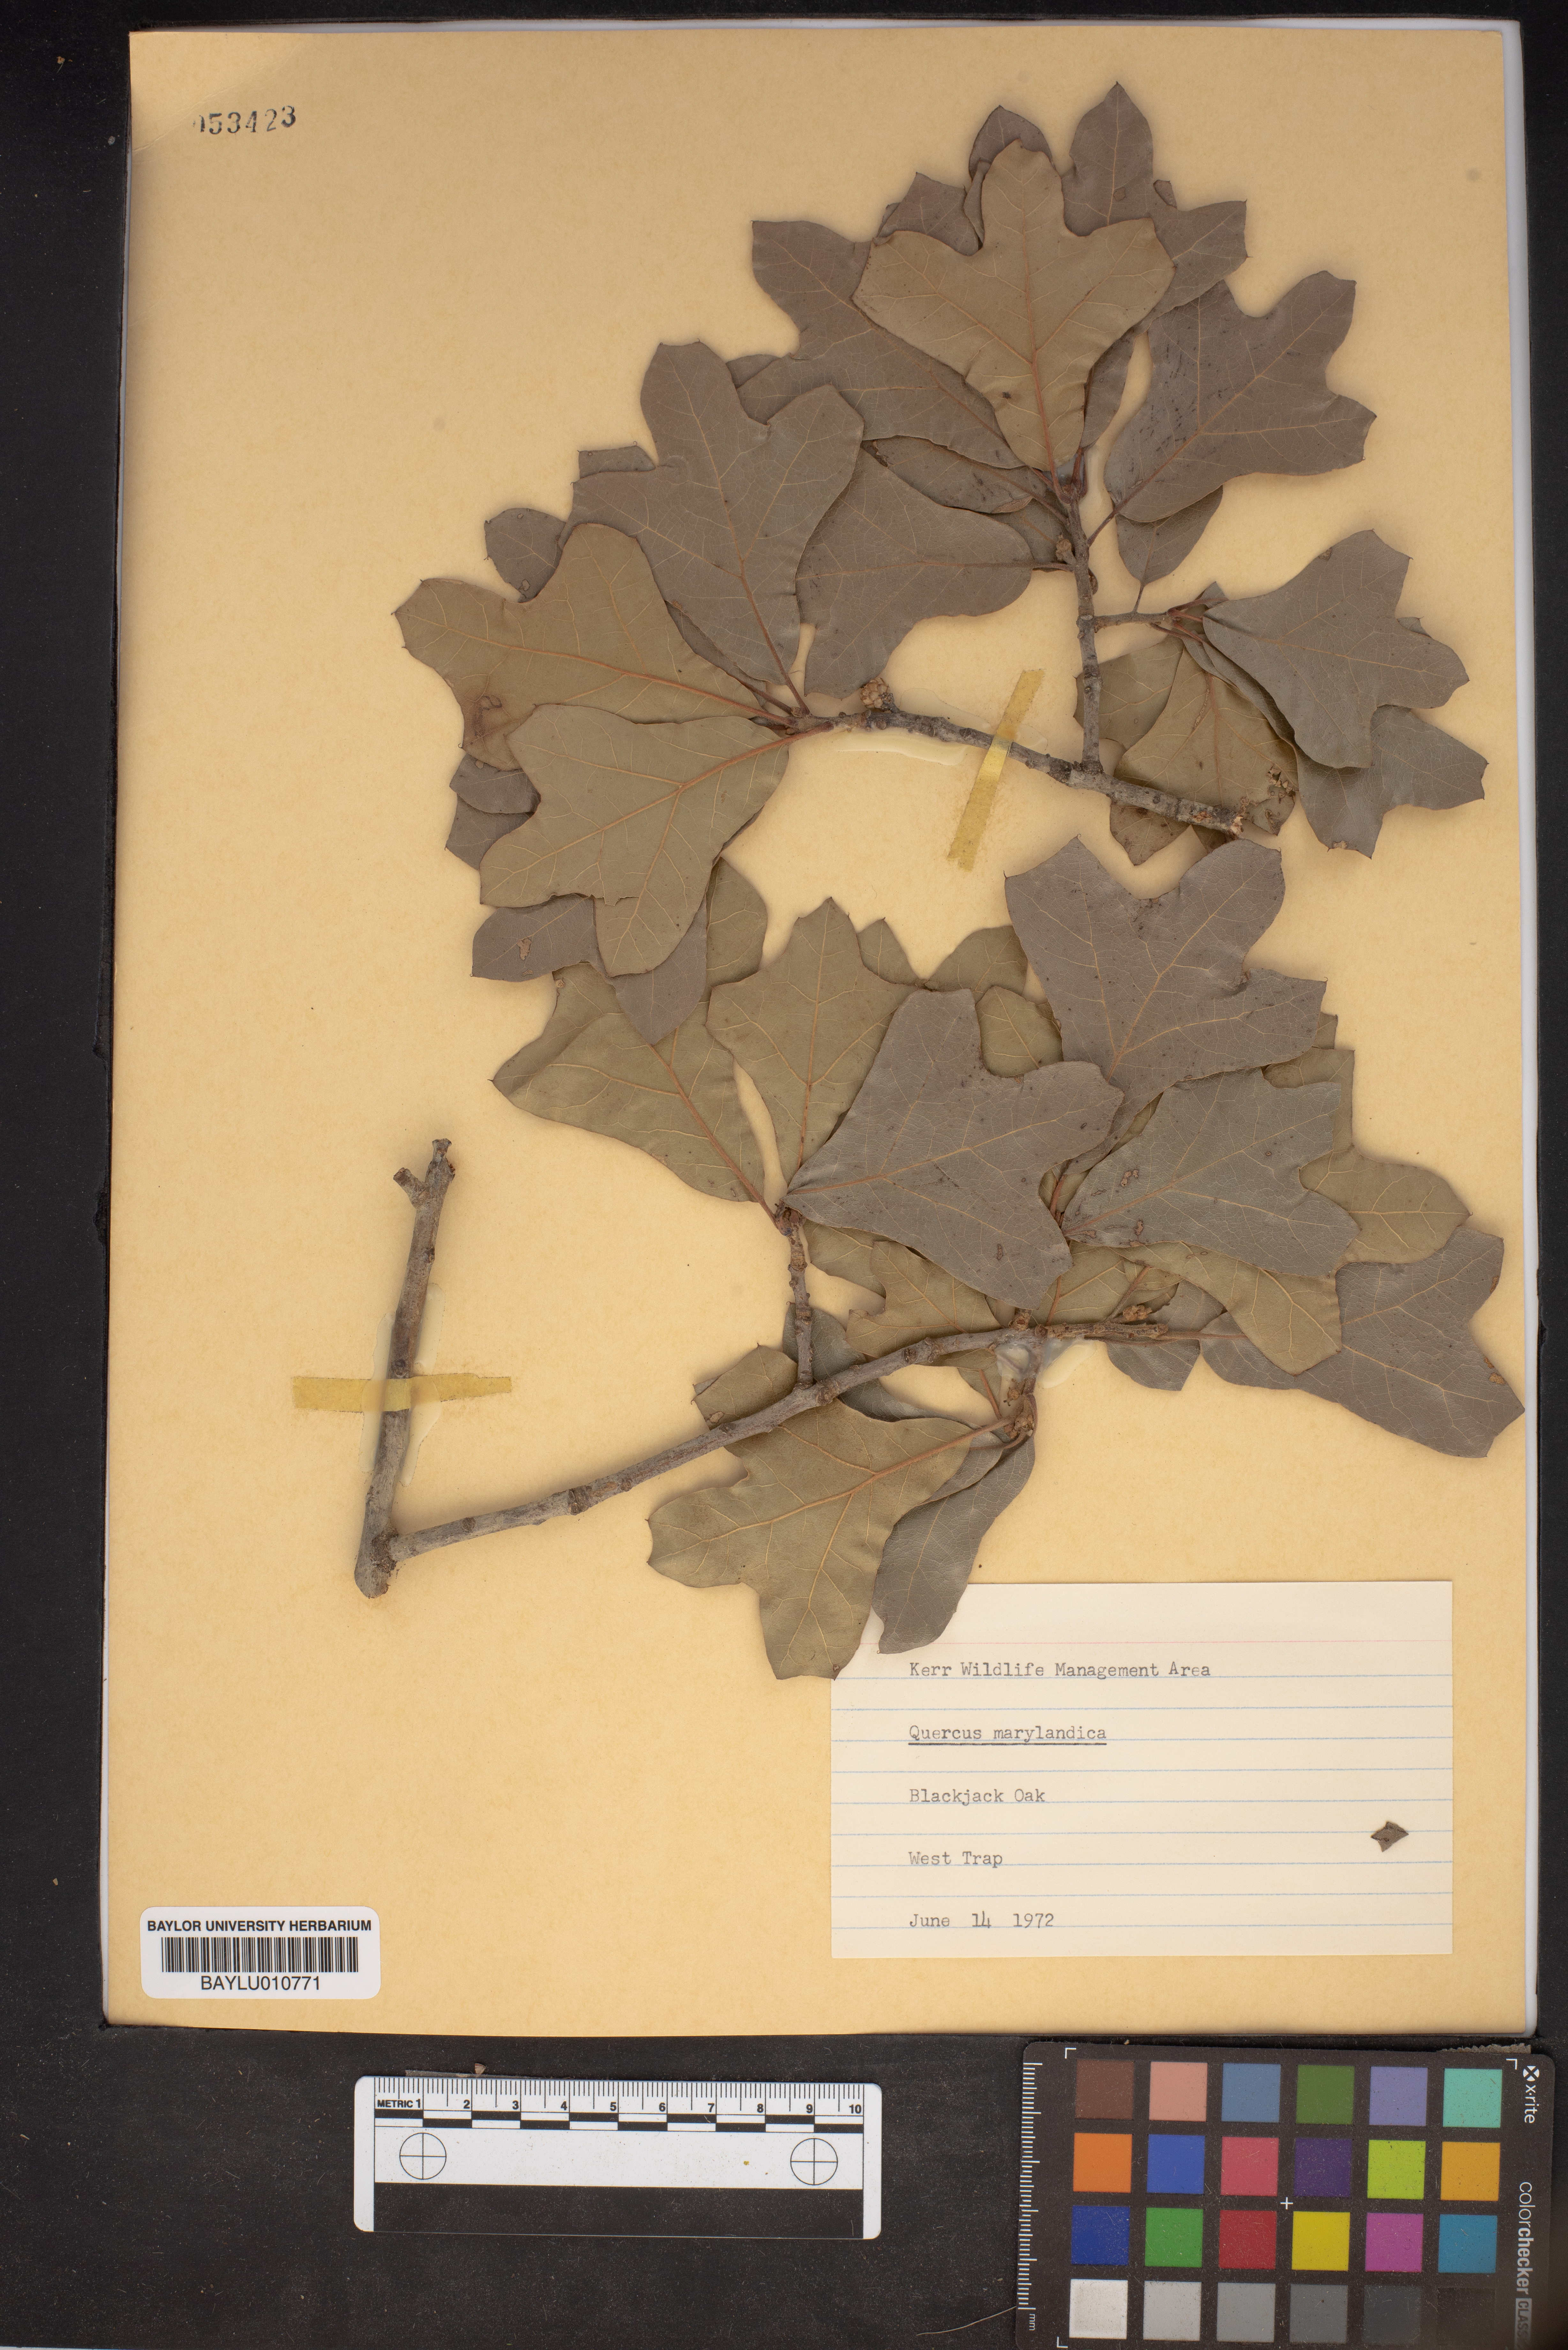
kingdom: Plantae
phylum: Tracheophyta
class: Magnoliopsida
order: Fagales
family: Fagaceae
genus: Quercus
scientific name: Quercus nigra
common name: Water oak
